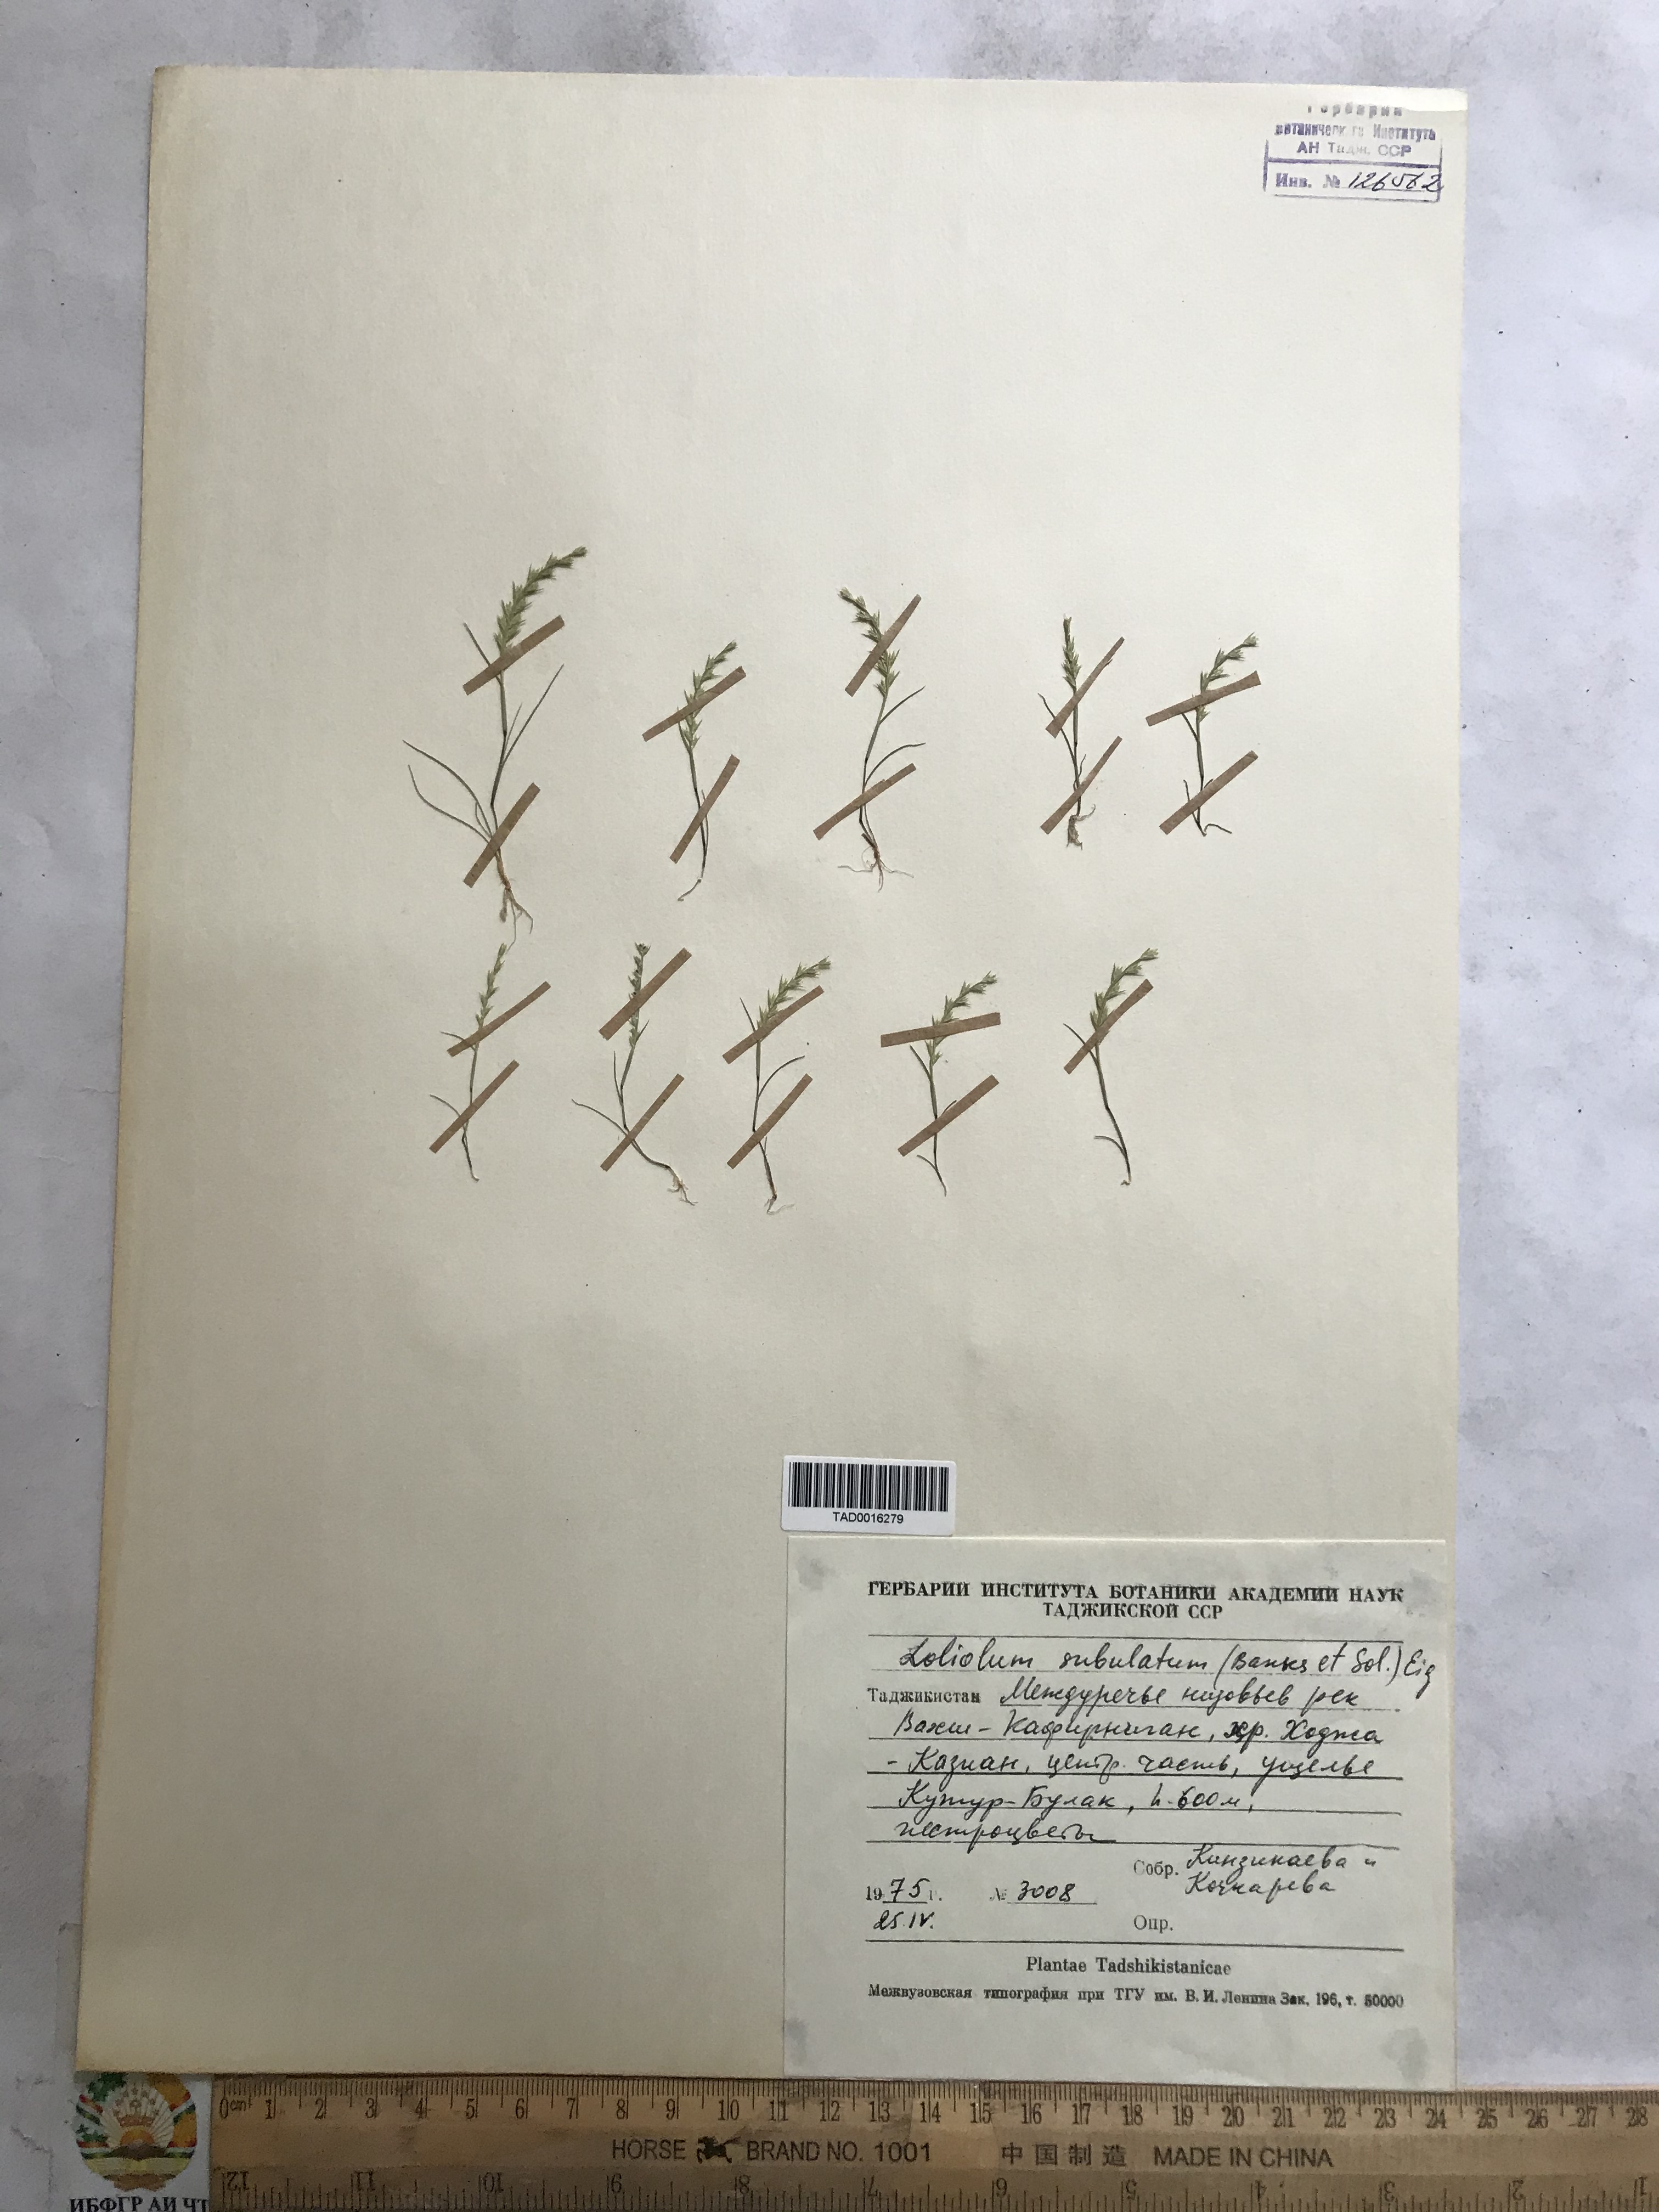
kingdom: Plantae
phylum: Tracheophyta
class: Liliopsida
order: Poales
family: Poaceae
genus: Festuca
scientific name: Festuca orientalis
